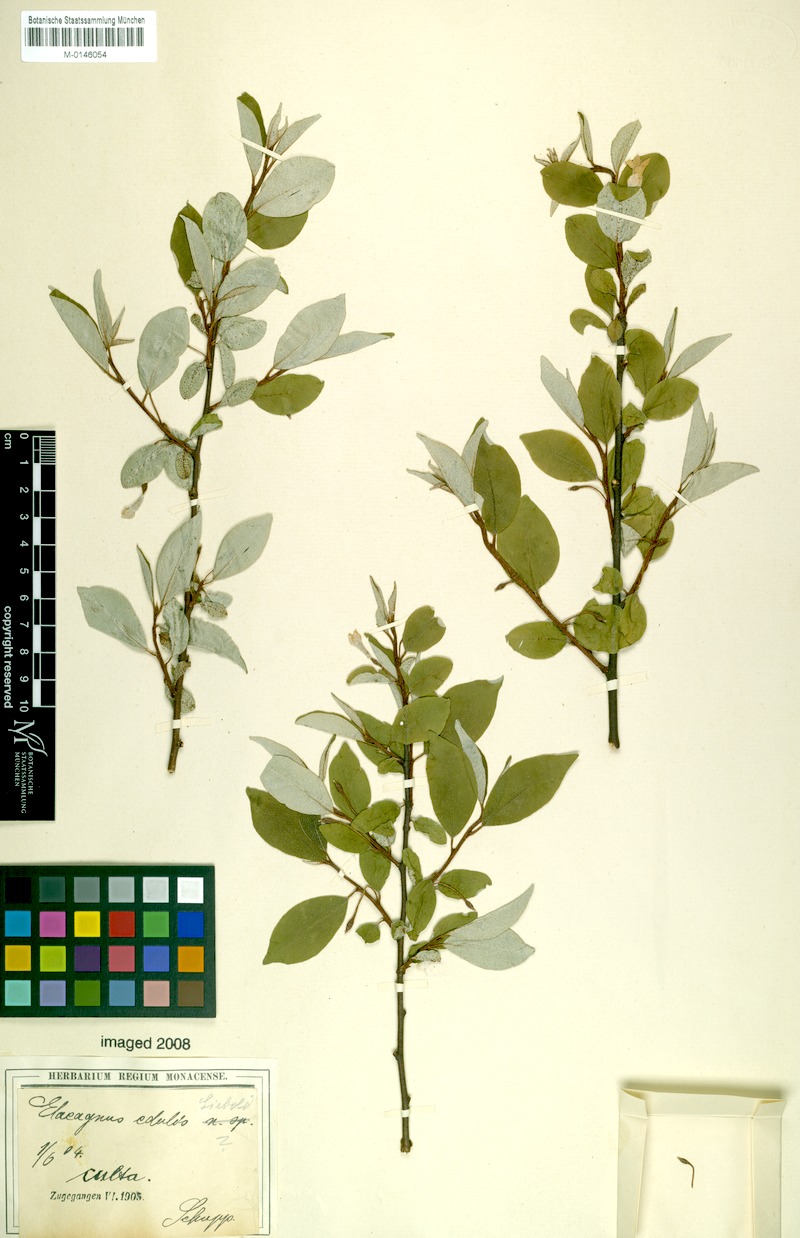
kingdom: Plantae
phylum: Tracheophyta
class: Magnoliopsida
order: Rosales
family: Elaeagnaceae
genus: Elaeagnus
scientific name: Elaeagnus multiflora
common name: Cherry elaeagnus
